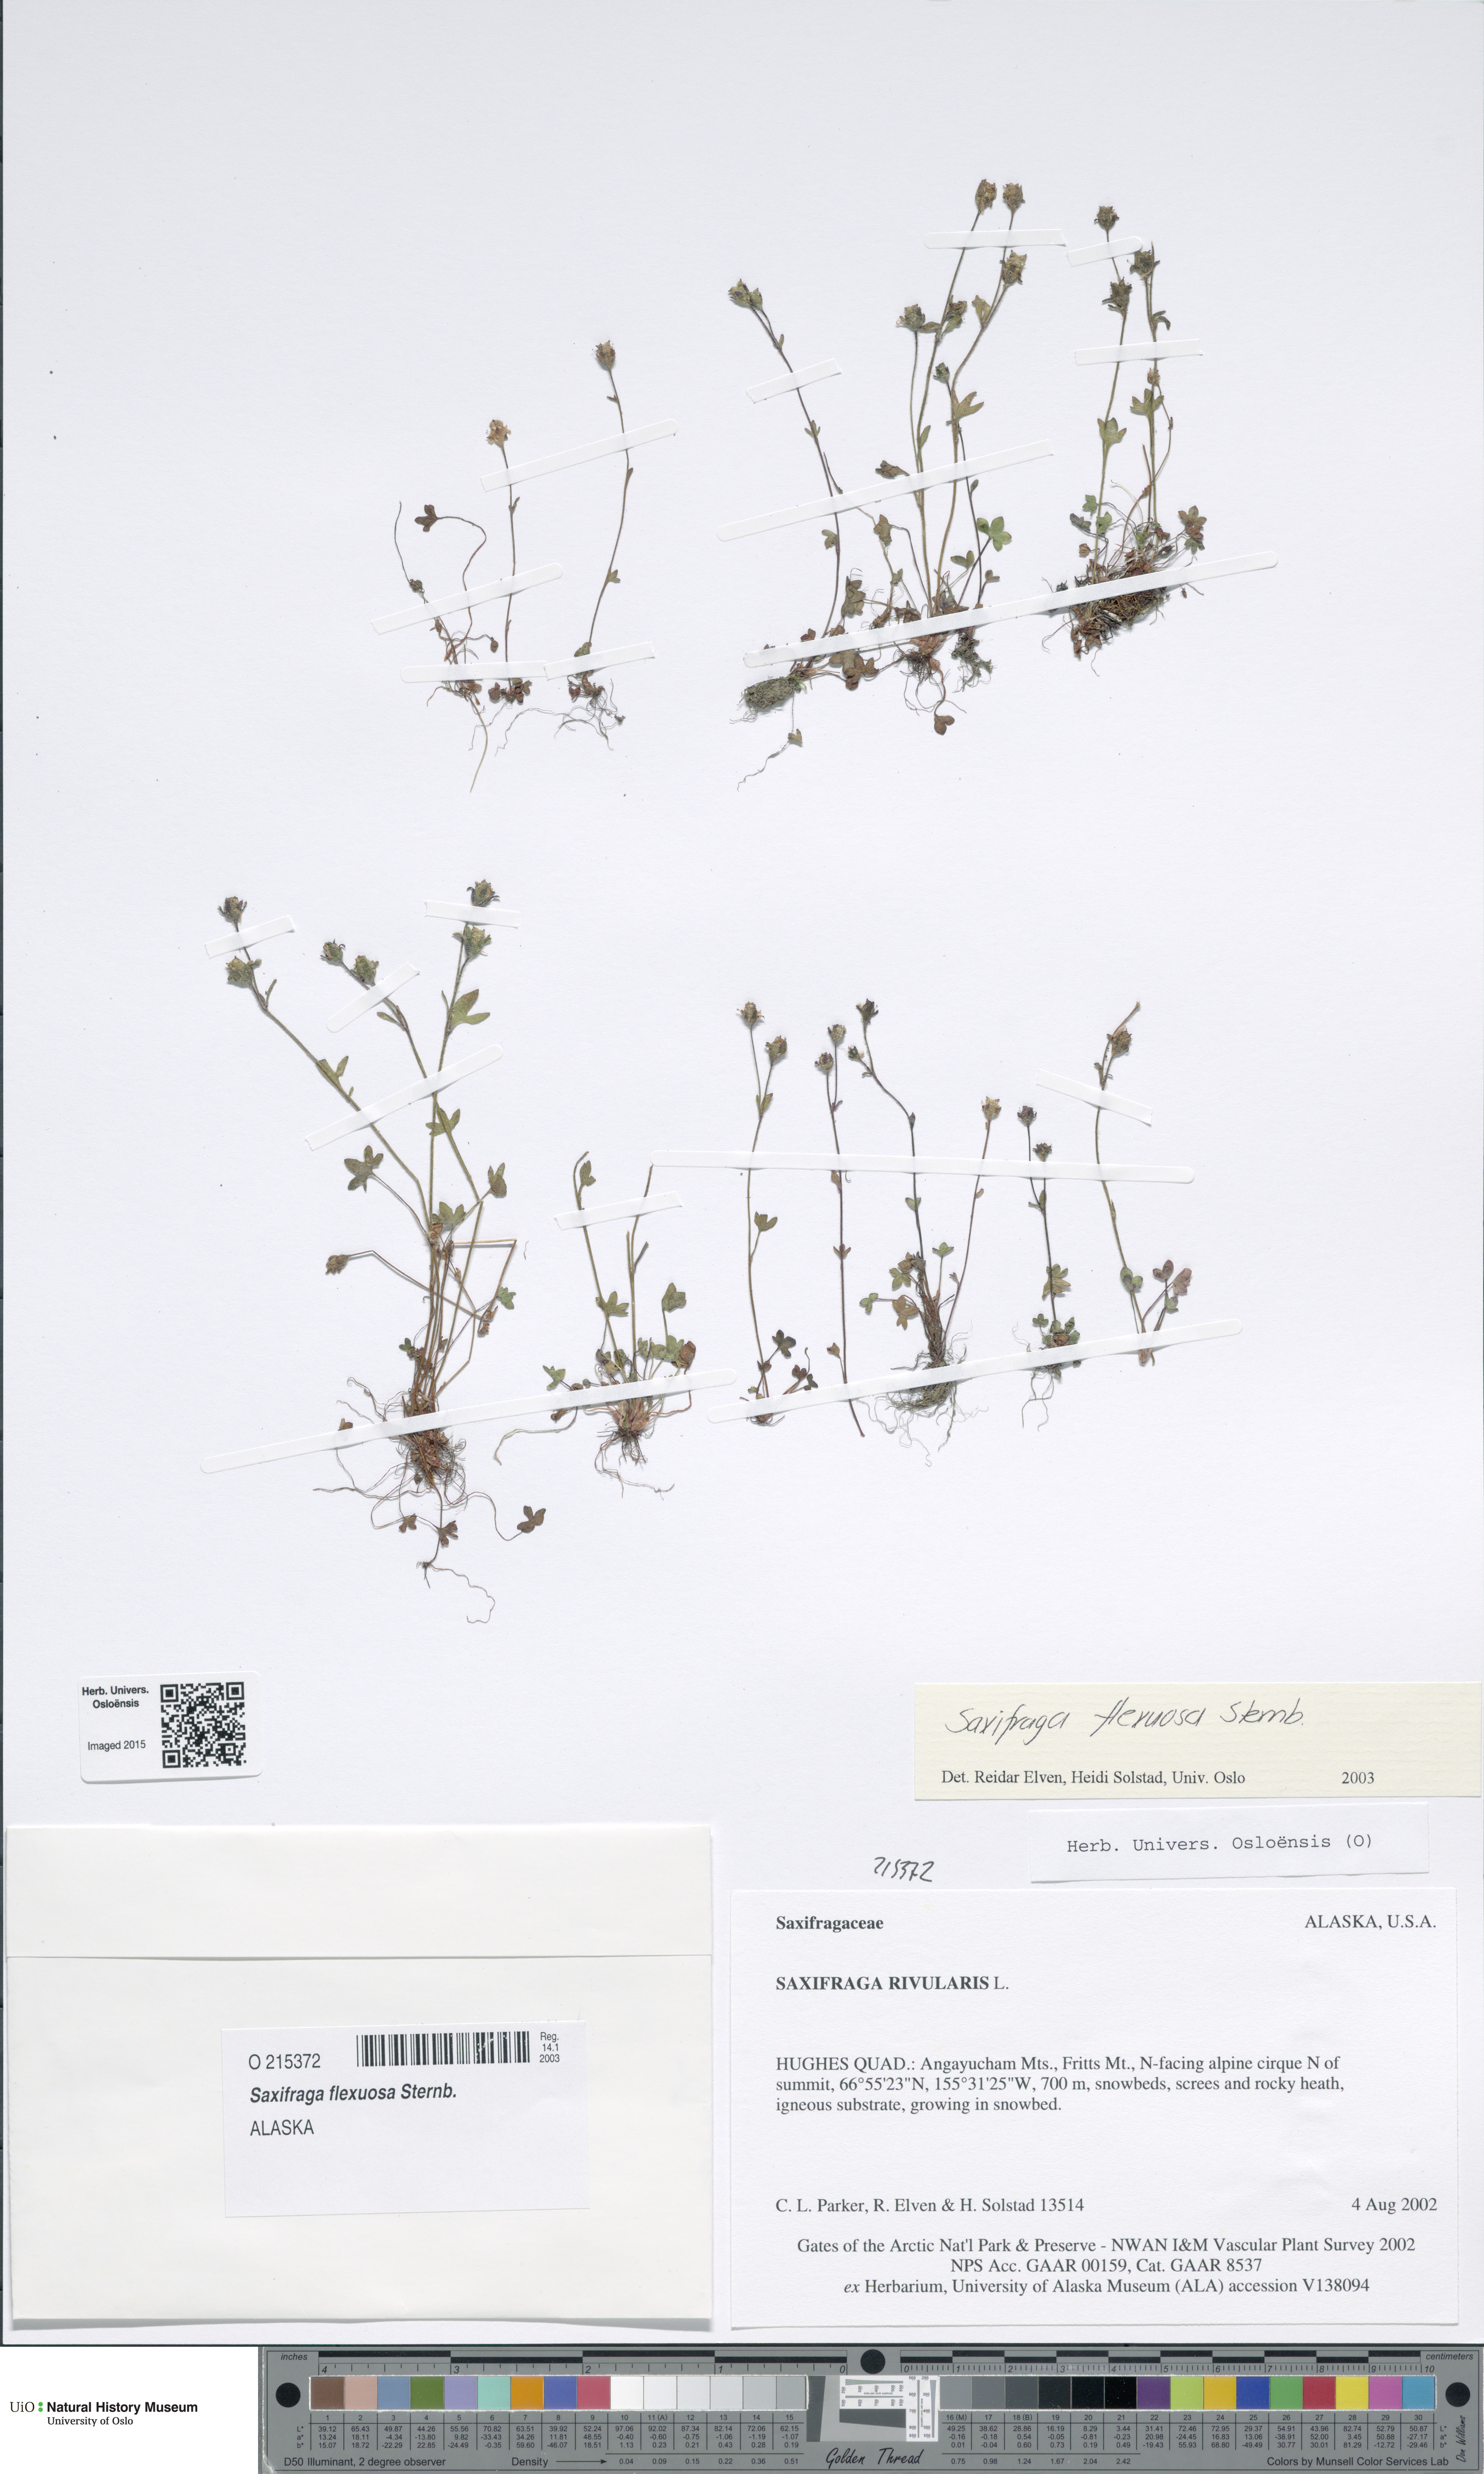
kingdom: Plantae
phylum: Tracheophyta
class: Magnoliopsida
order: Saxifragales
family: Saxifragaceae
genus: Saxifraga
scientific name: Saxifraga hyperborea
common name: Arctic saxifrage
